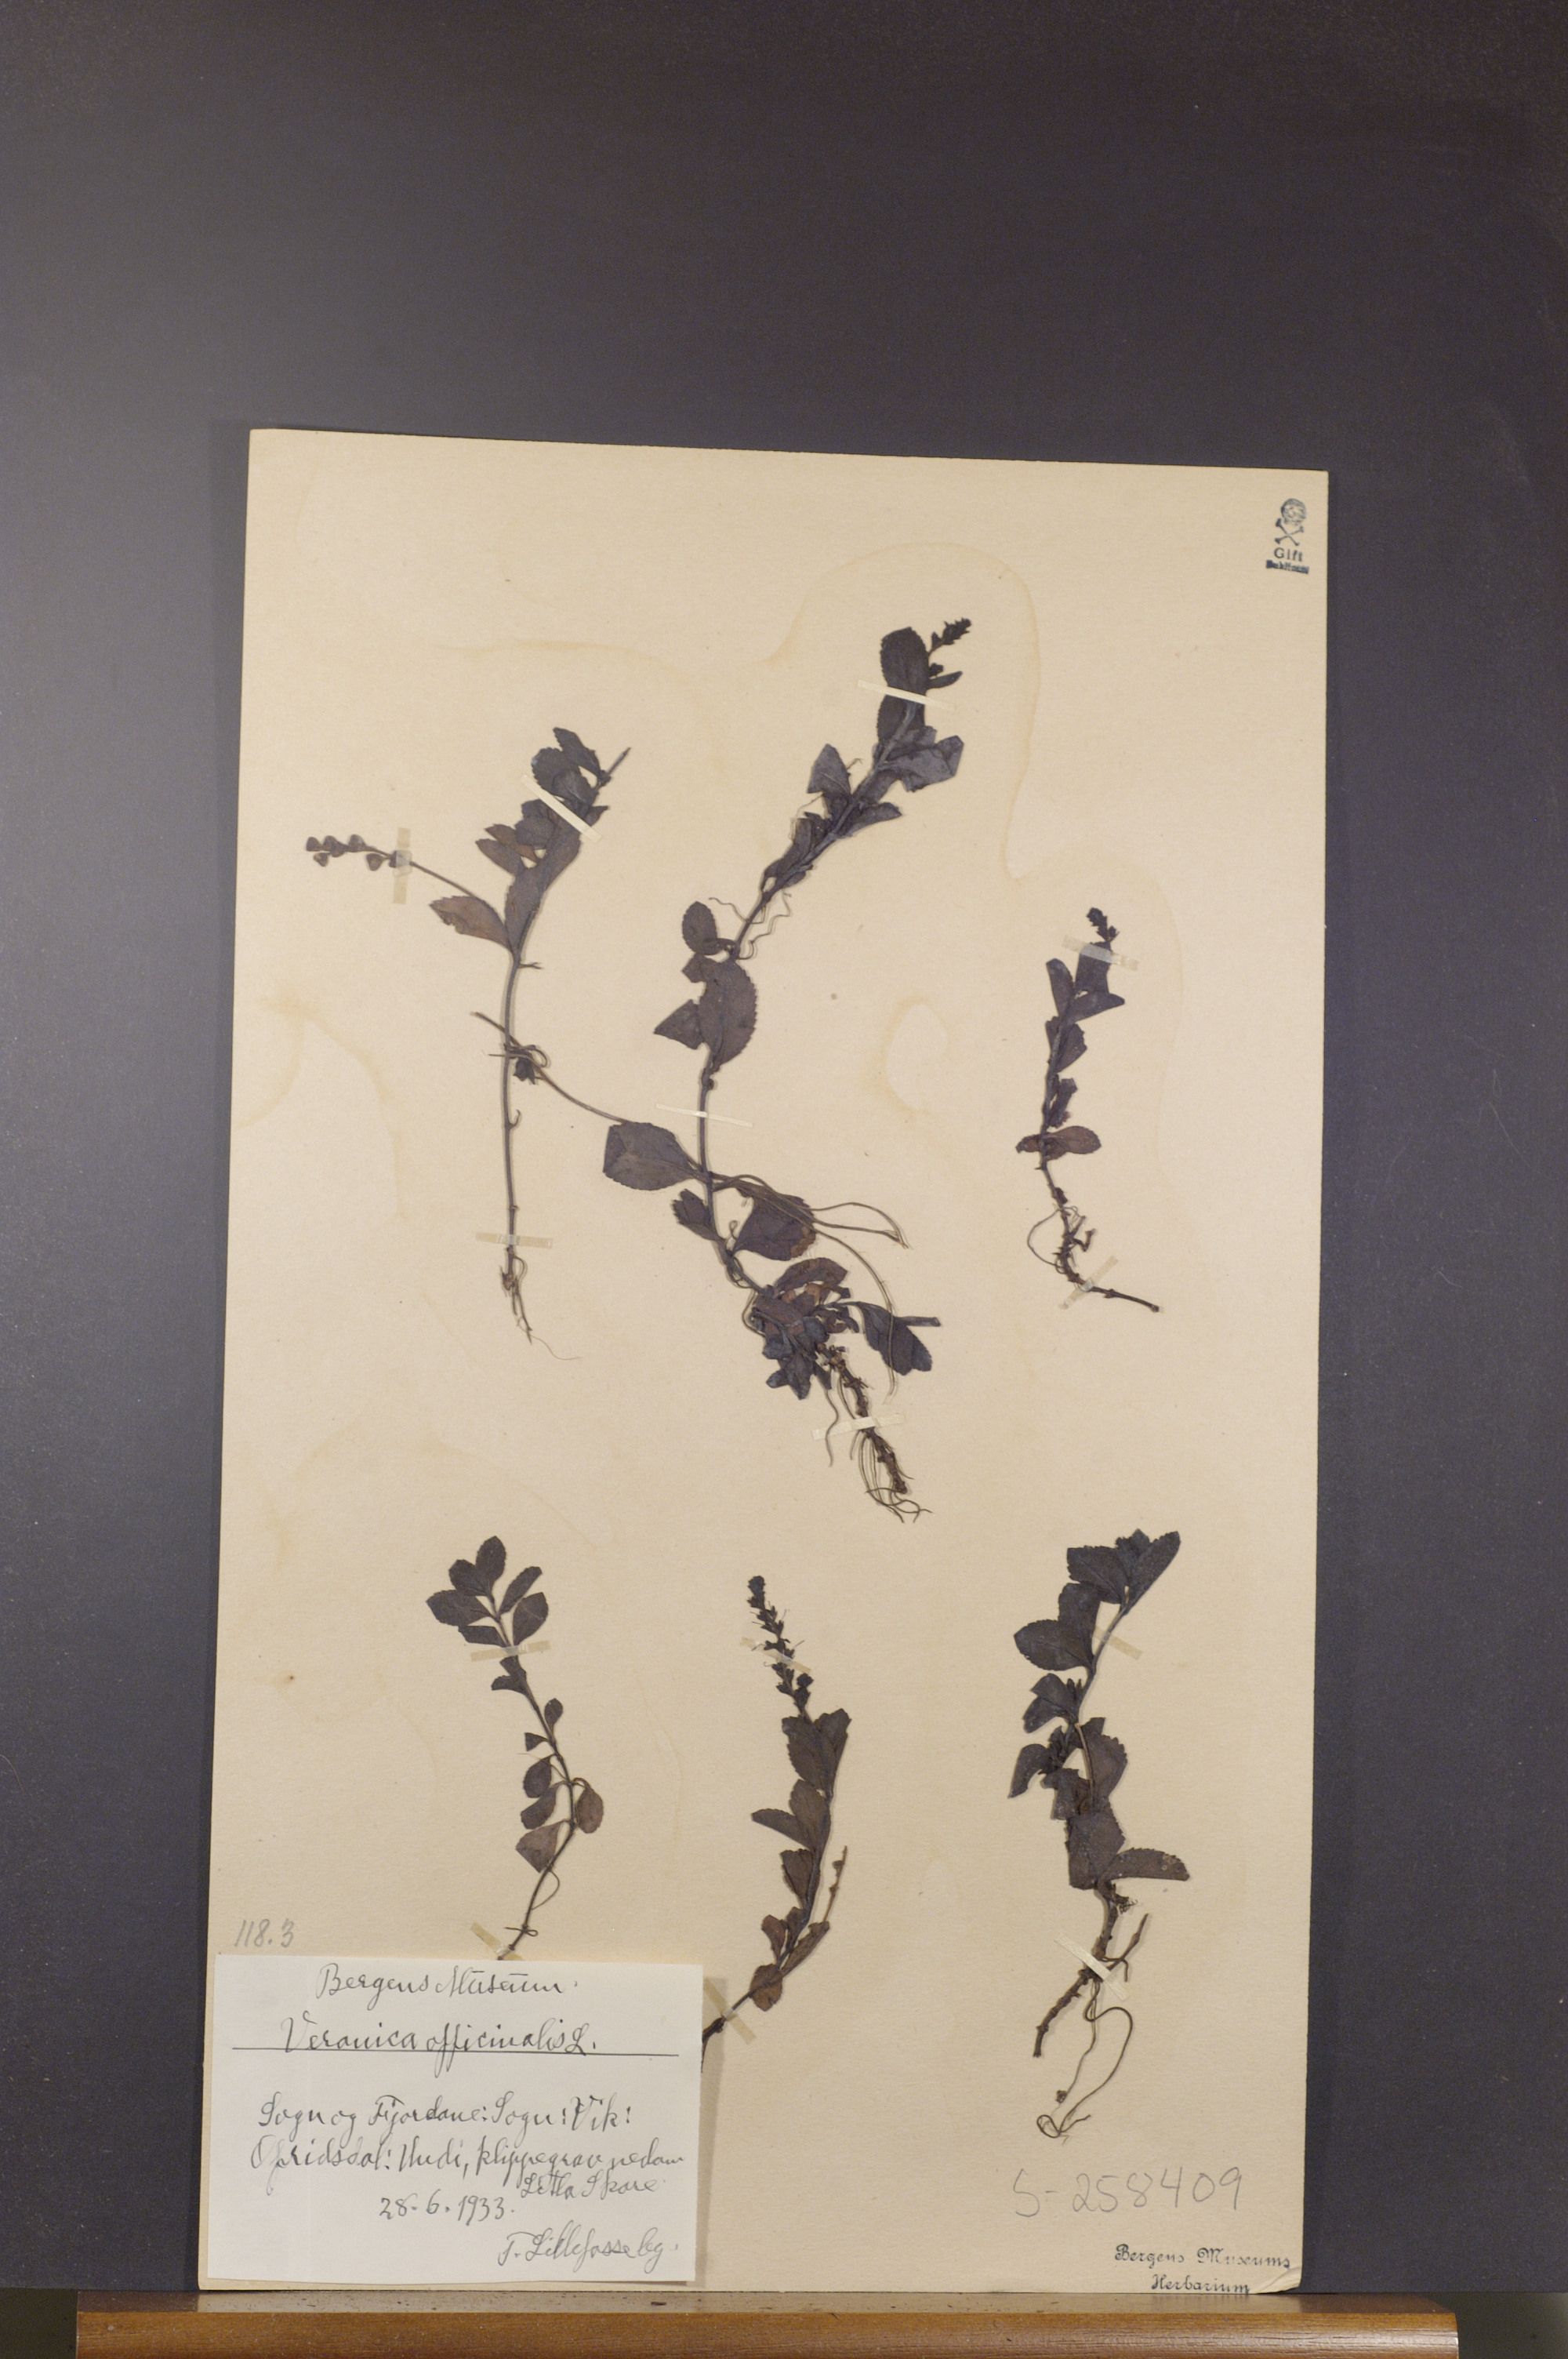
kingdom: Plantae
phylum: Tracheophyta
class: Magnoliopsida
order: Lamiales
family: Plantaginaceae
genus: Veronica
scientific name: Veronica officinalis
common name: Common speedwell
